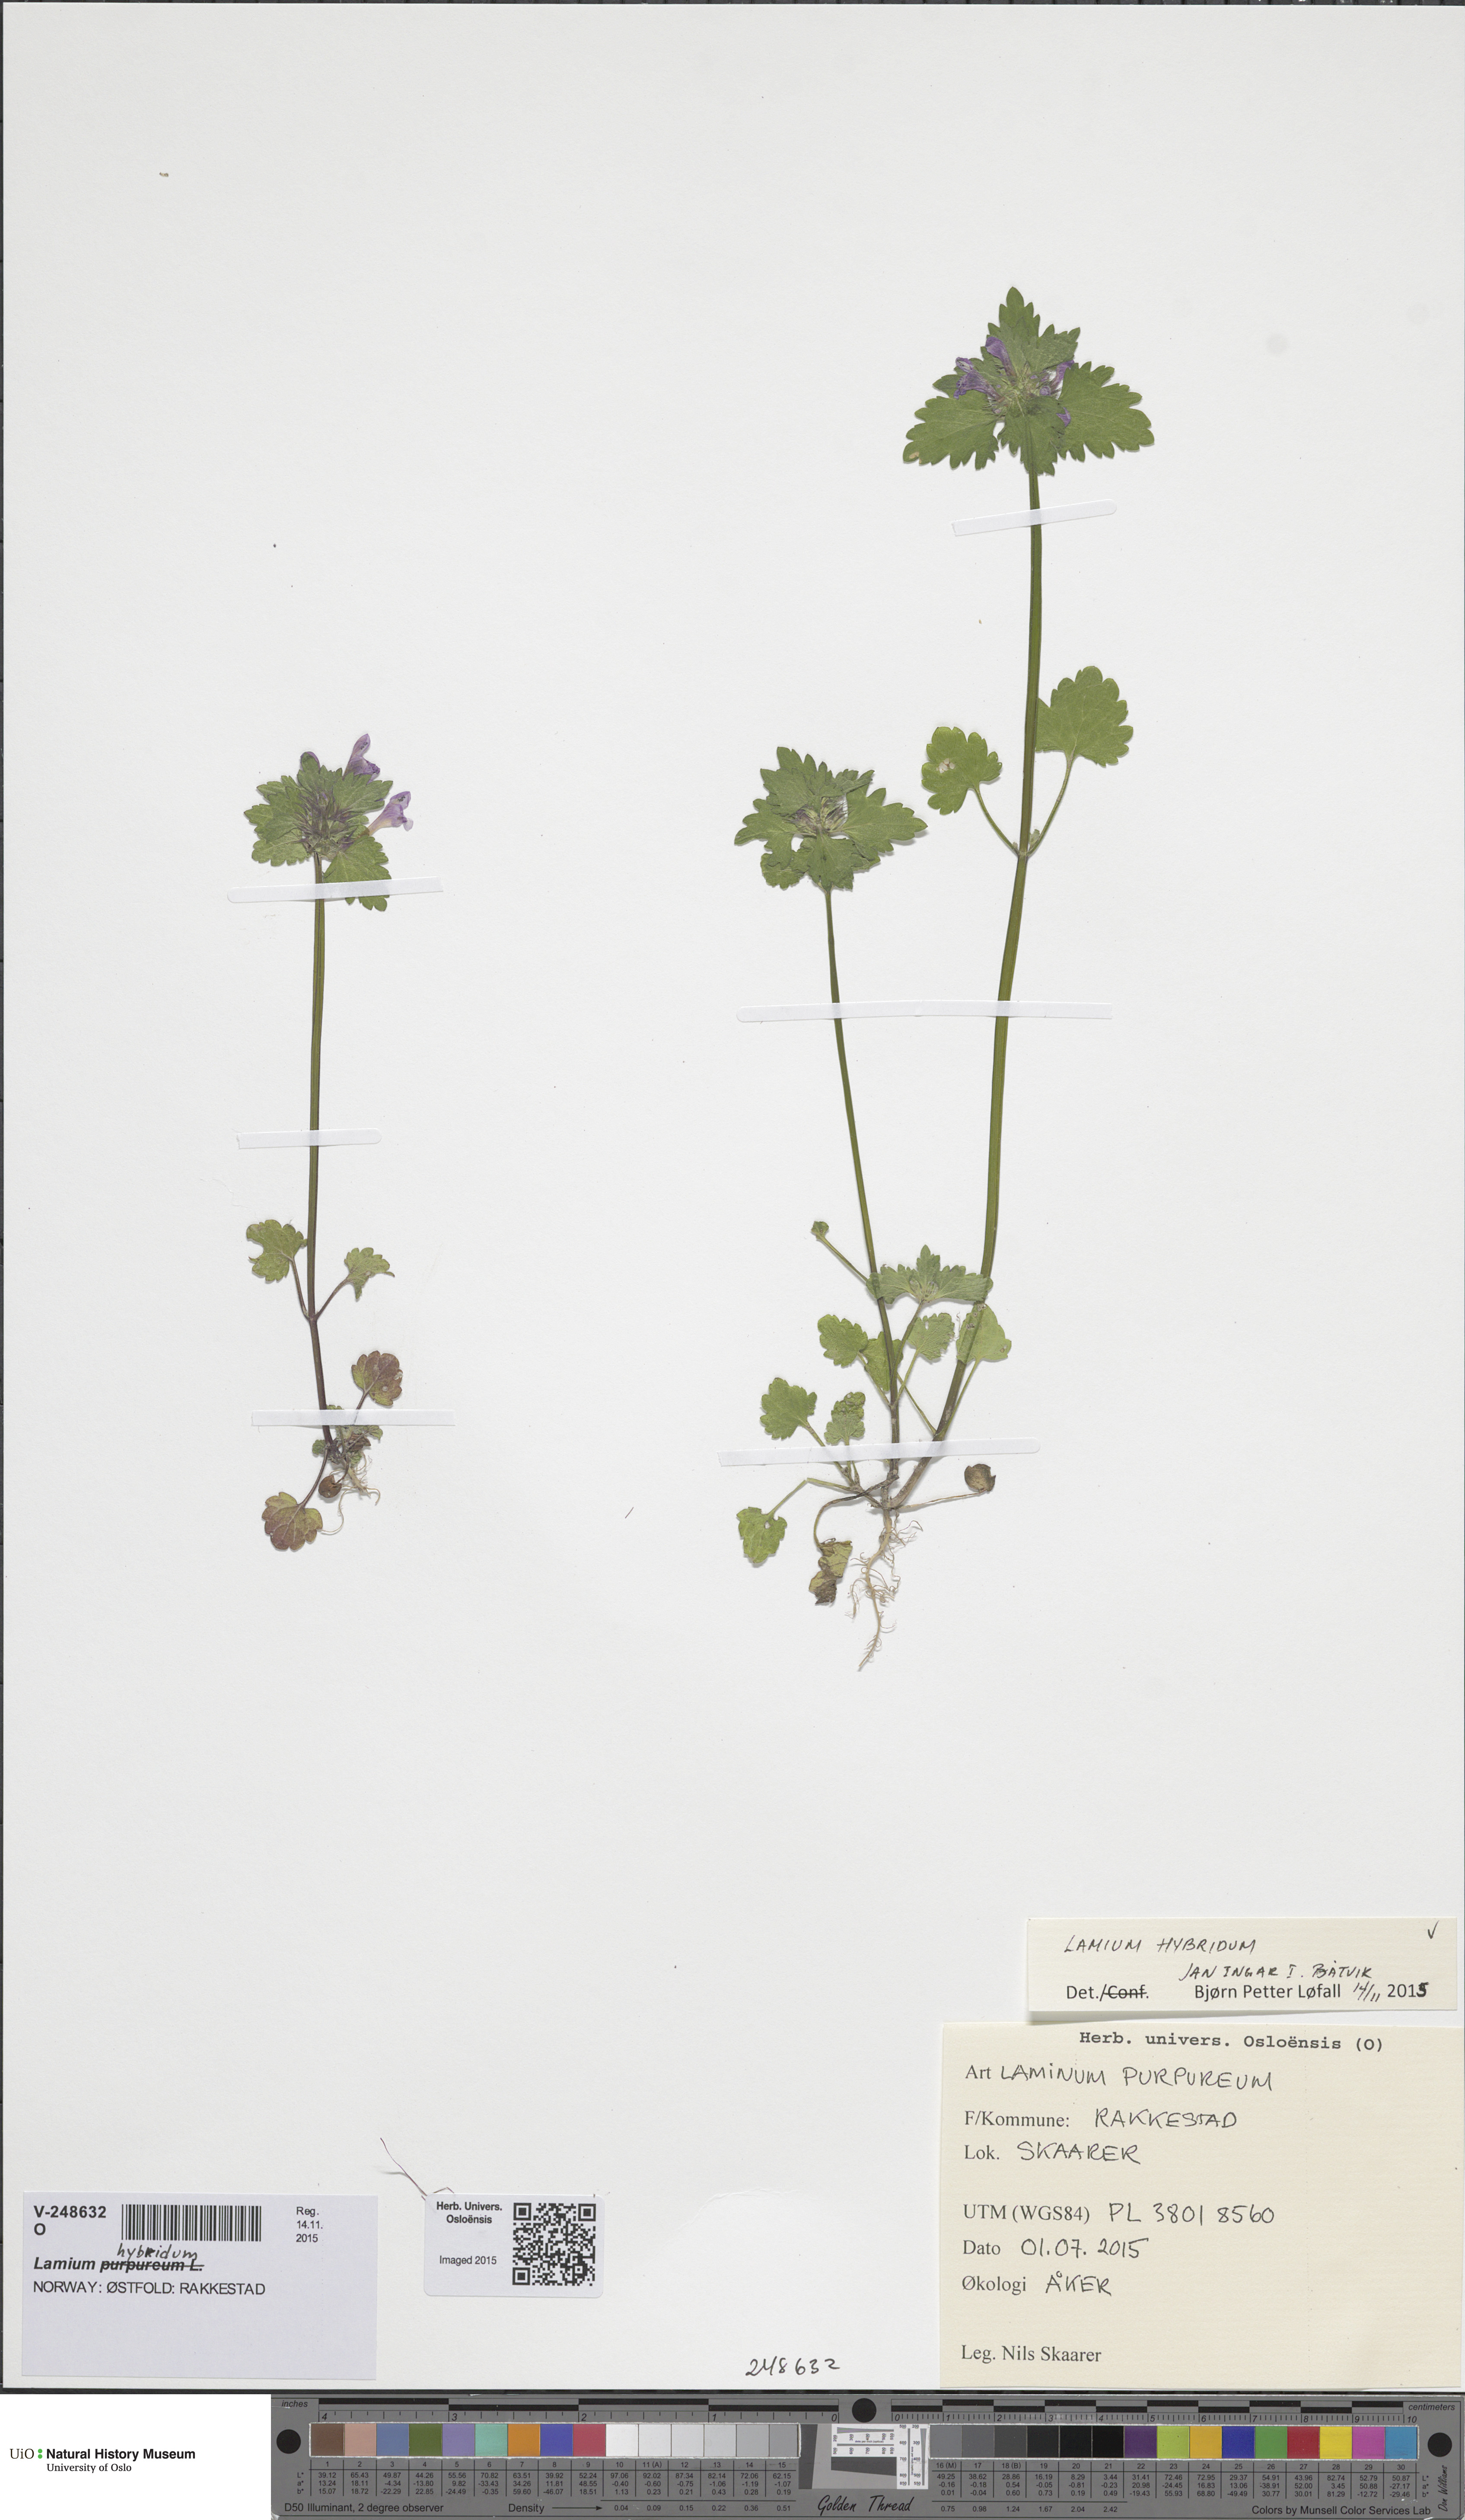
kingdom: Plantae
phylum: Tracheophyta
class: Magnoliopsida
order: Lamiales
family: Lamiaceae
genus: Lamium
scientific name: Lamium hybridum
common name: Cut-leaved dead-nettle
